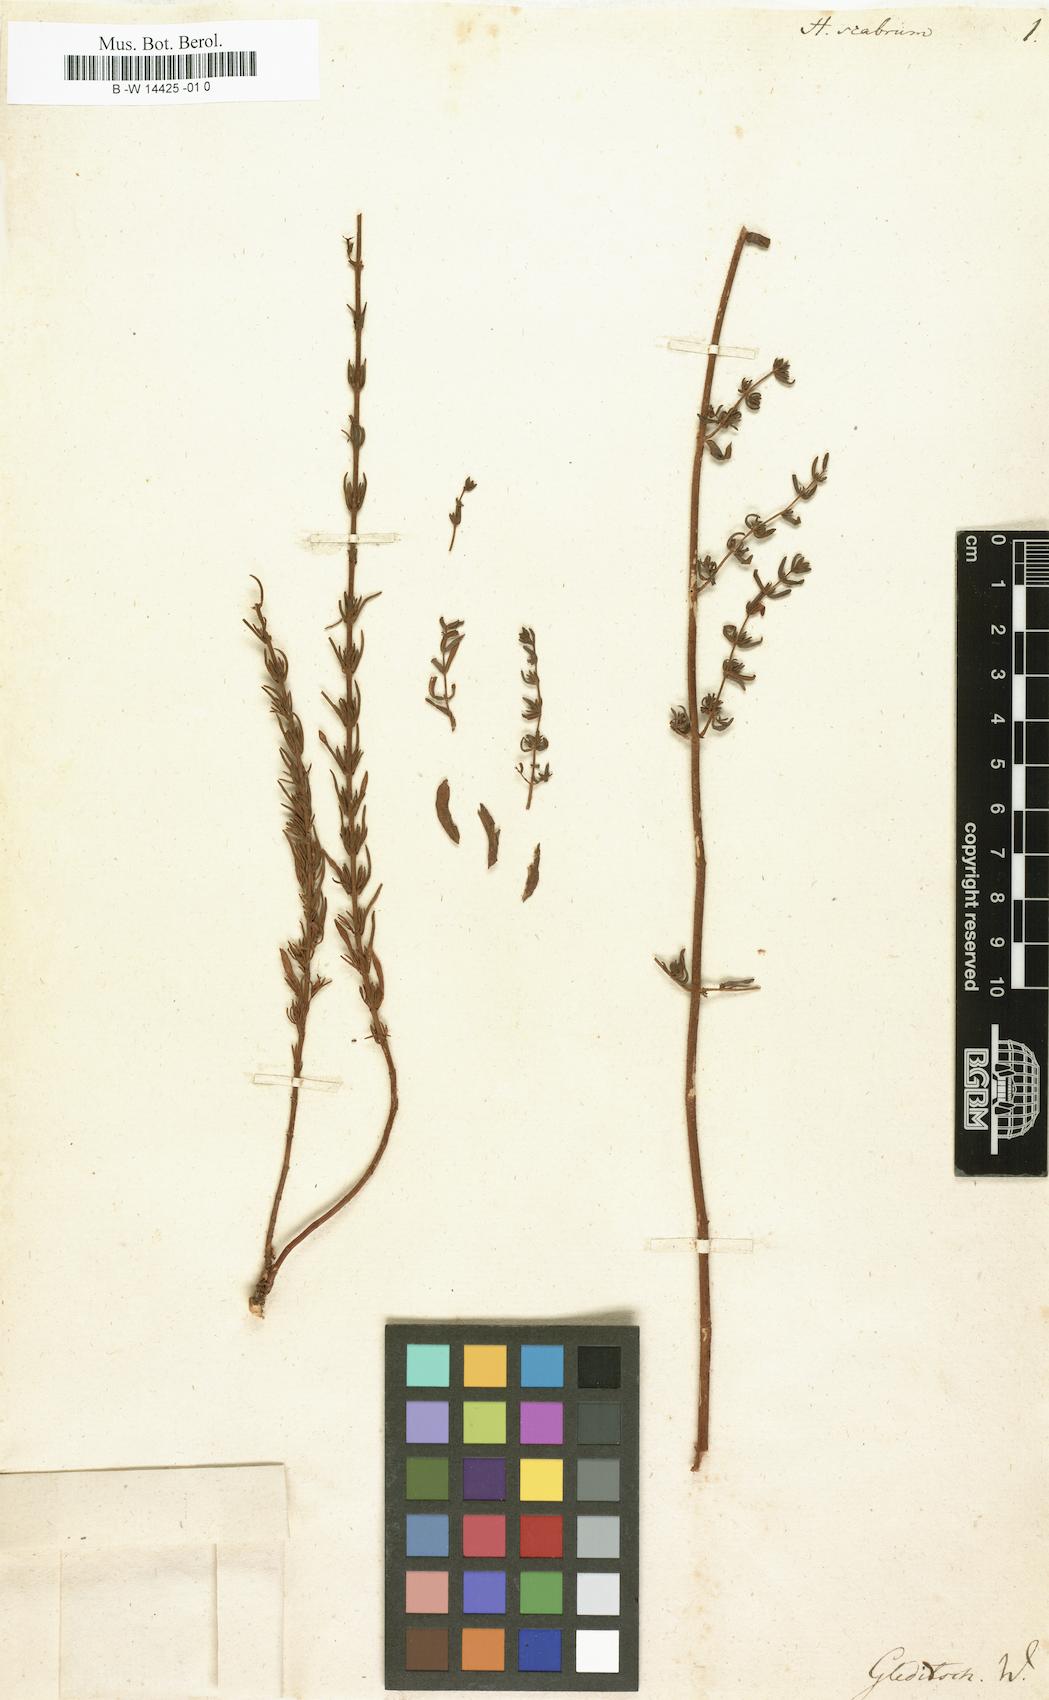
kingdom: Plantae
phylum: Tracheophyta
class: Magnoliopsida
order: Malpighiales
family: Hypericaceae
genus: Hypericum
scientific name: Hypericum scabrum
